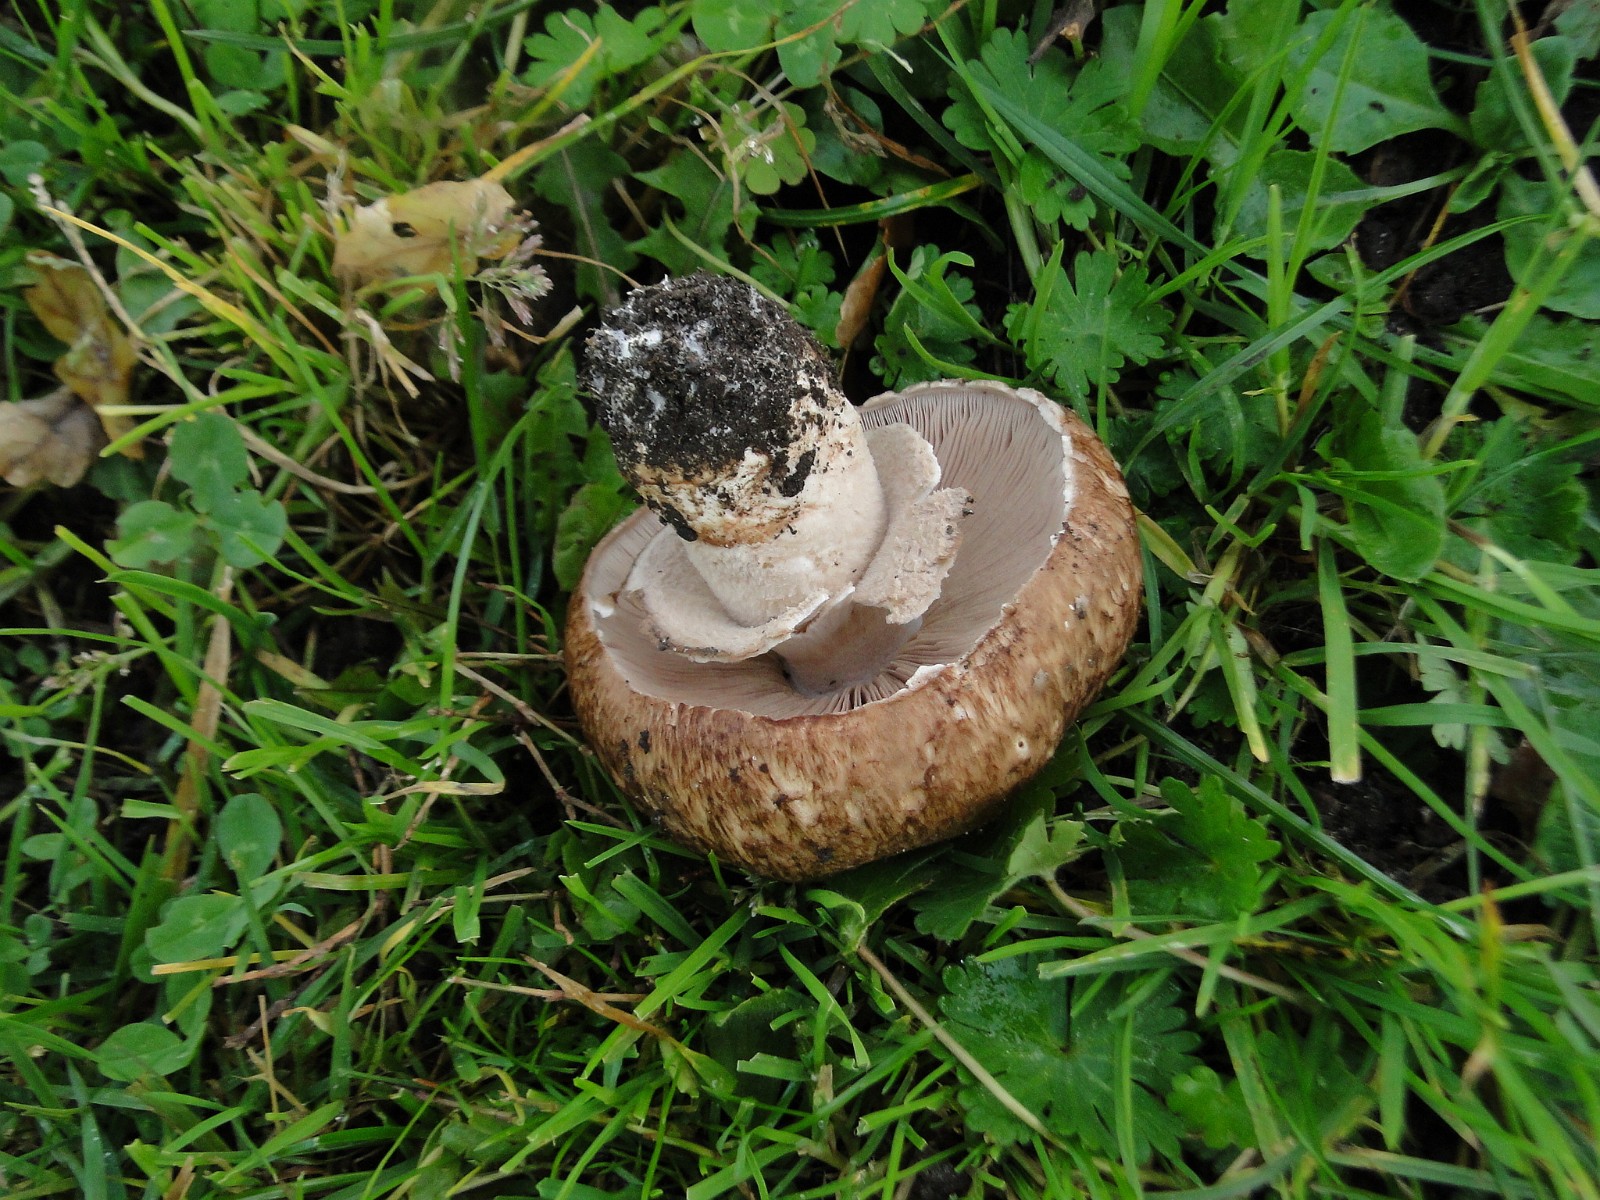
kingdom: Fungi
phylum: Basidiomycota
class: Agaricomycetes
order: Agaricales
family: Agaricaceae
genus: Agaricus
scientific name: Agaricus lanipes
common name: uldstokket champignon
